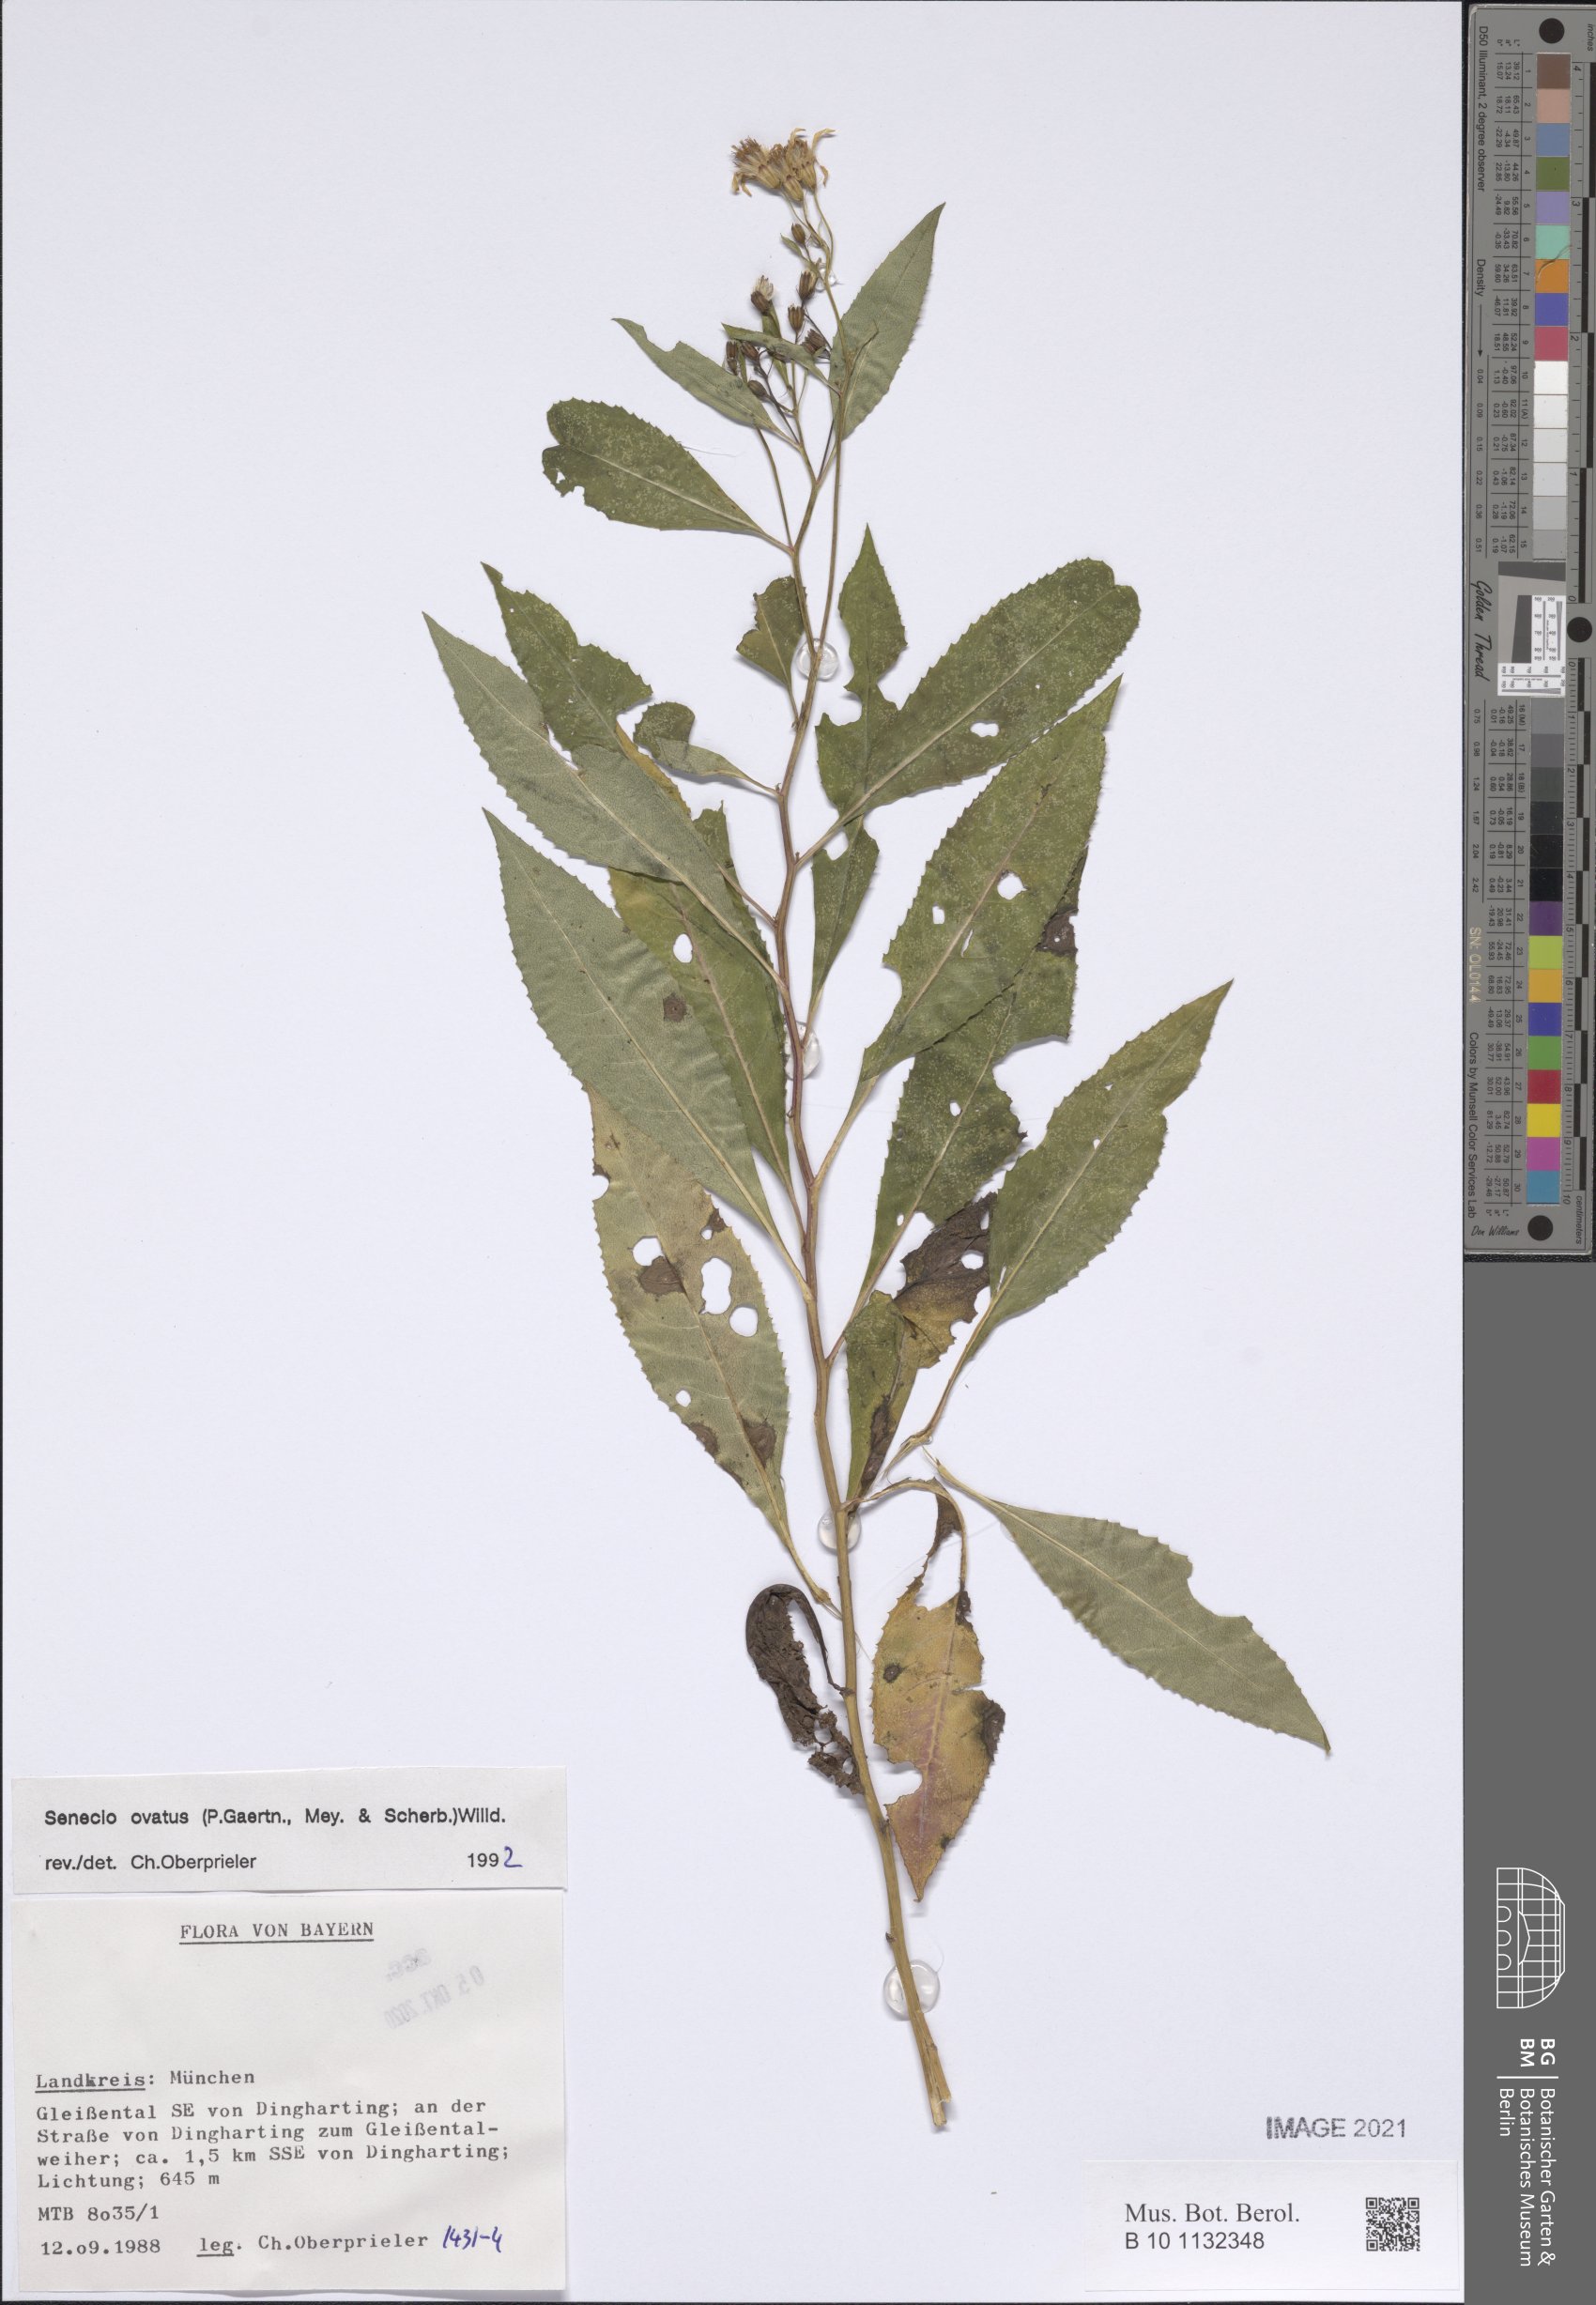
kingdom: Plantae
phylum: Tracheophyta
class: Magnoliopsida
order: Asterales
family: Asteraceae
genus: Senecio
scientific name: Senecio ovatus
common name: Wood ragwort
